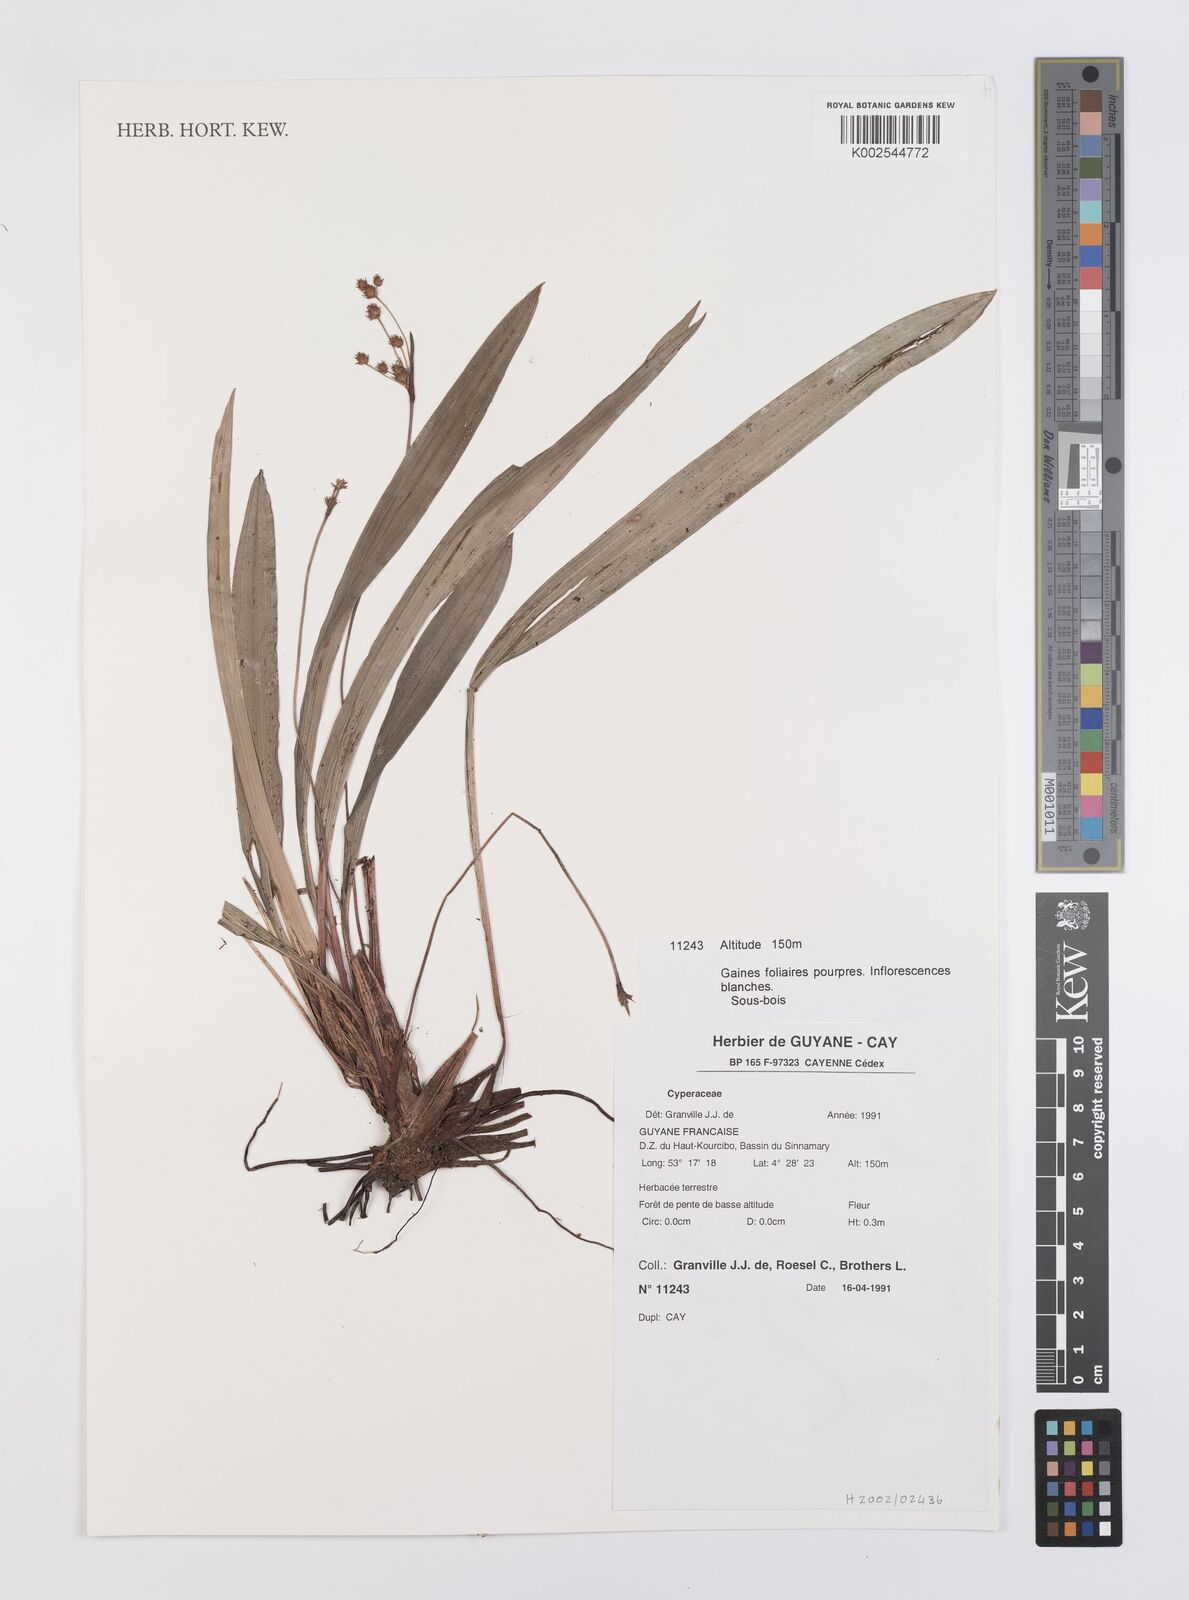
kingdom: Plantae
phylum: Tracheophyta
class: Liliopsida
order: Poales
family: Cyperaceae
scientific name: Cyperaceae
